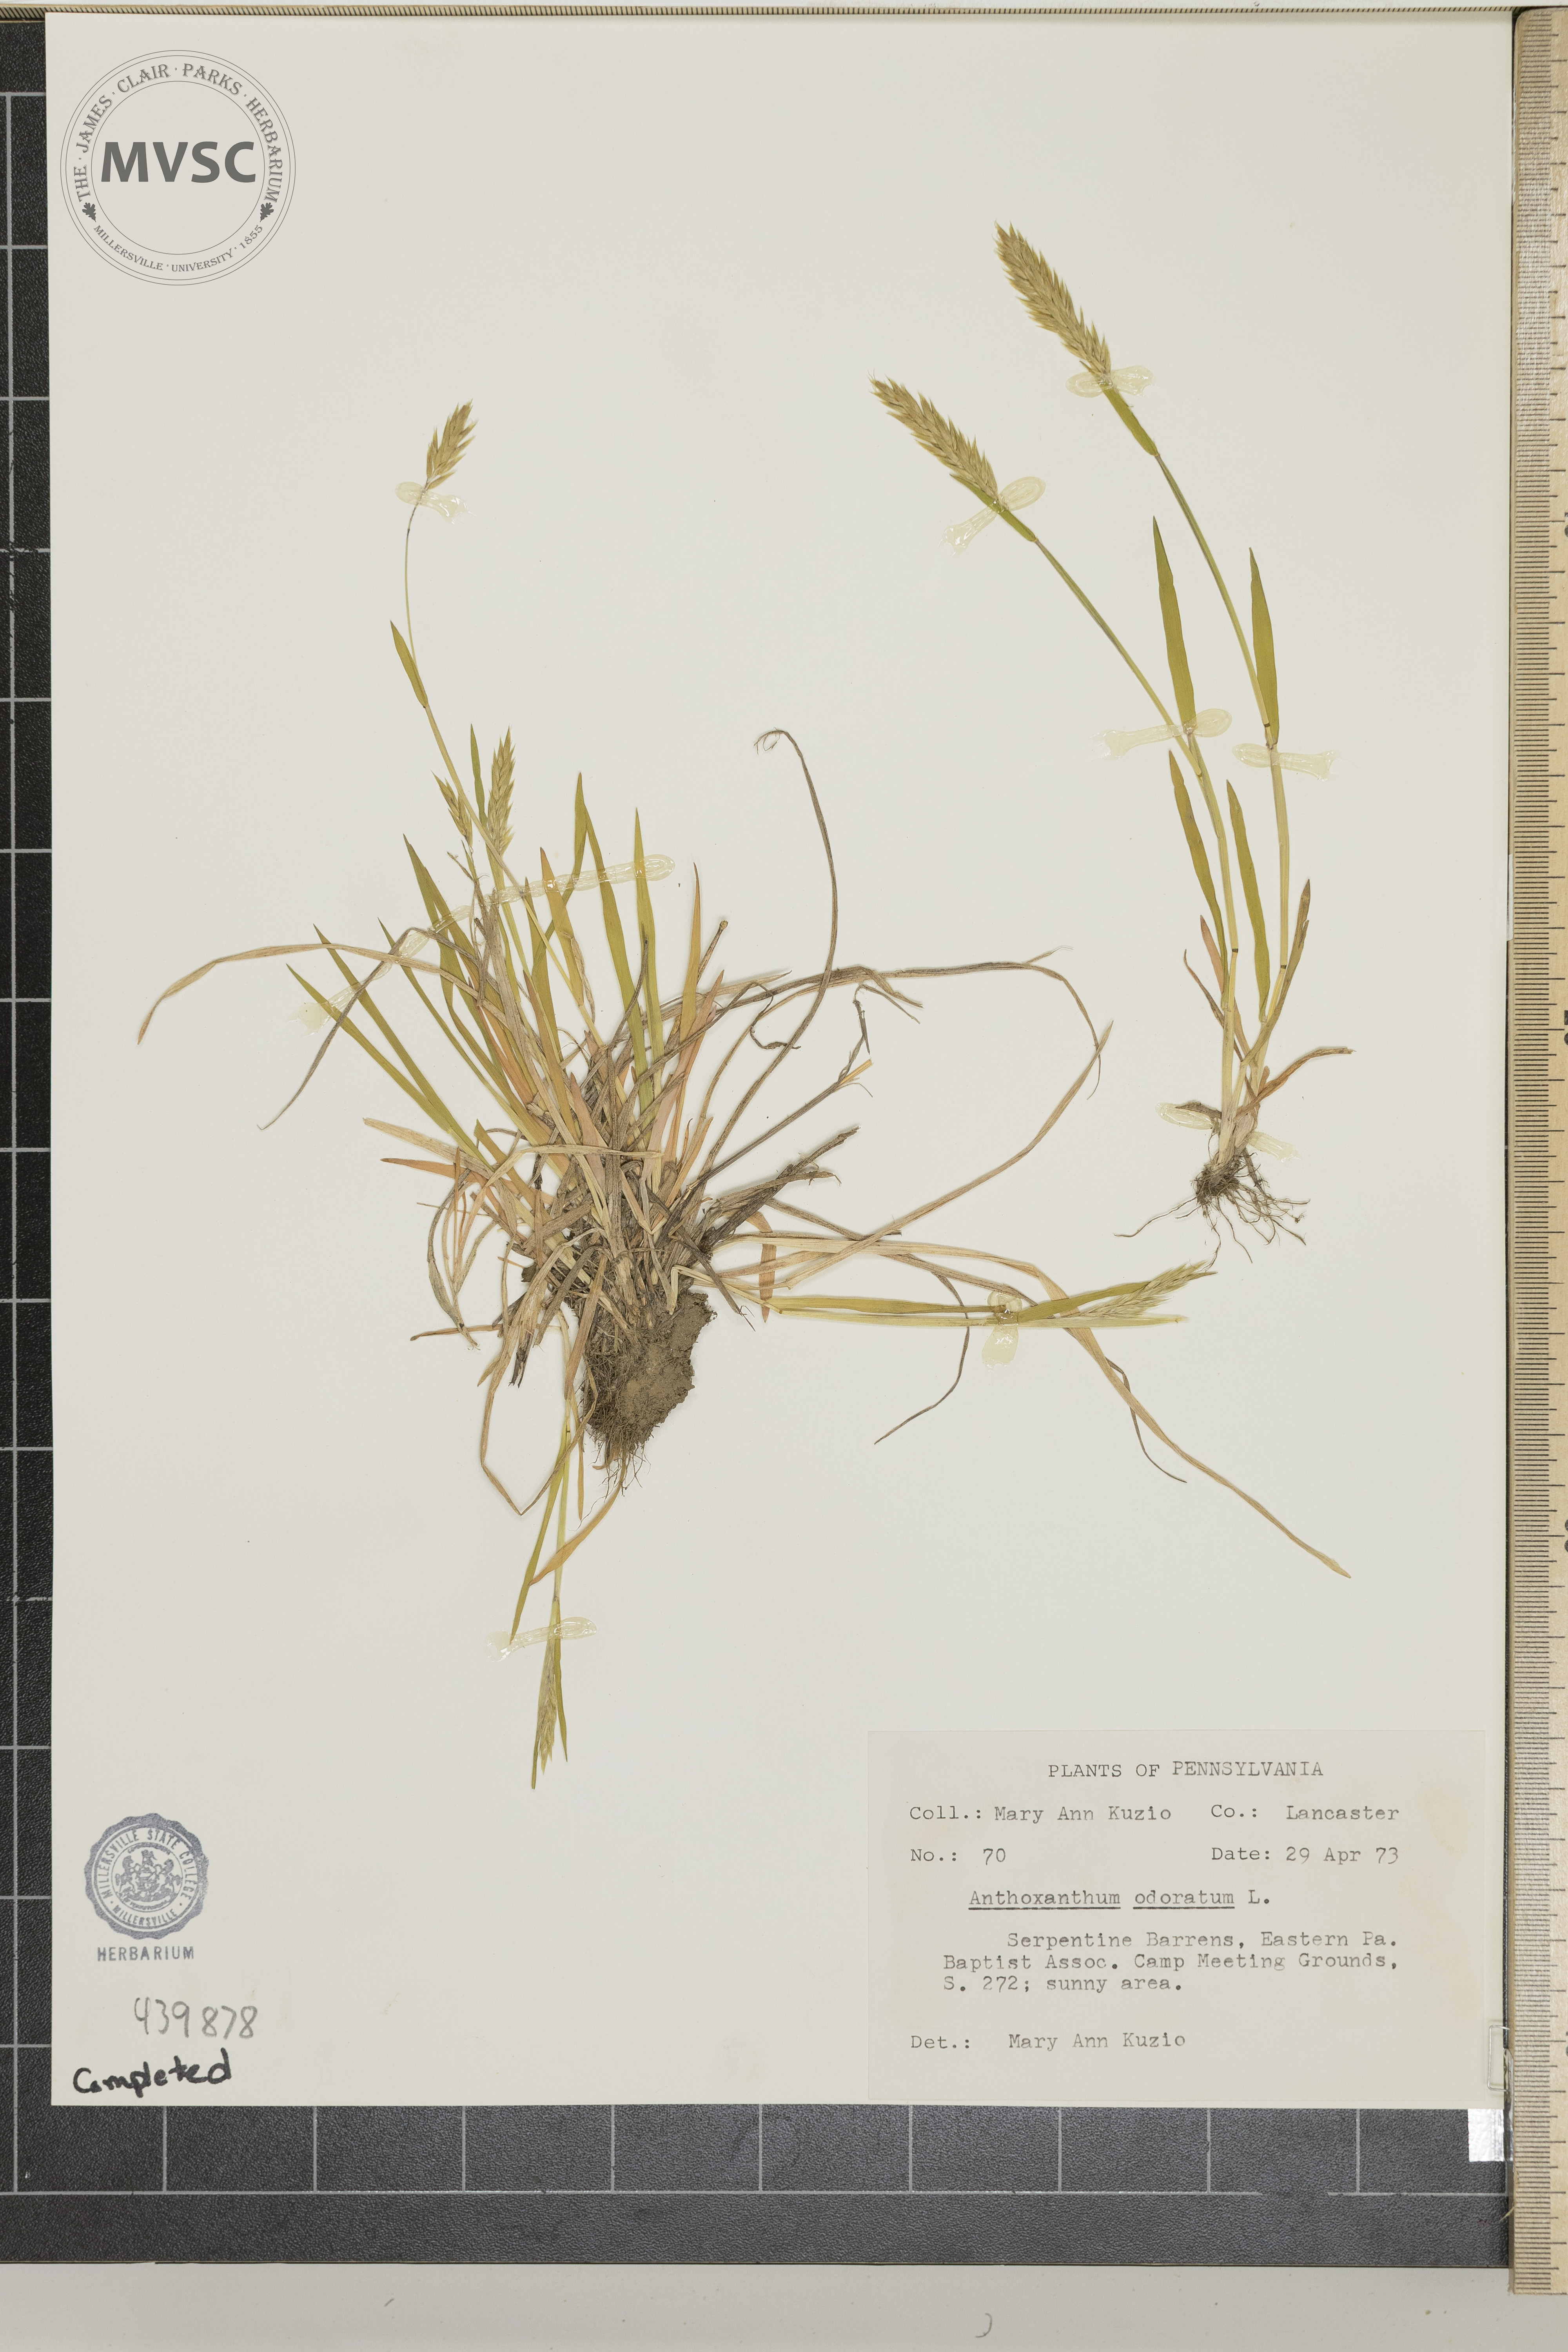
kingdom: Plantae
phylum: Tracheophyta
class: Liliopsida
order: Poales
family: Poaceae
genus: Anthoxanthum
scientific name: Anthoxanthum odoratum
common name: Sweet vernalgrass
